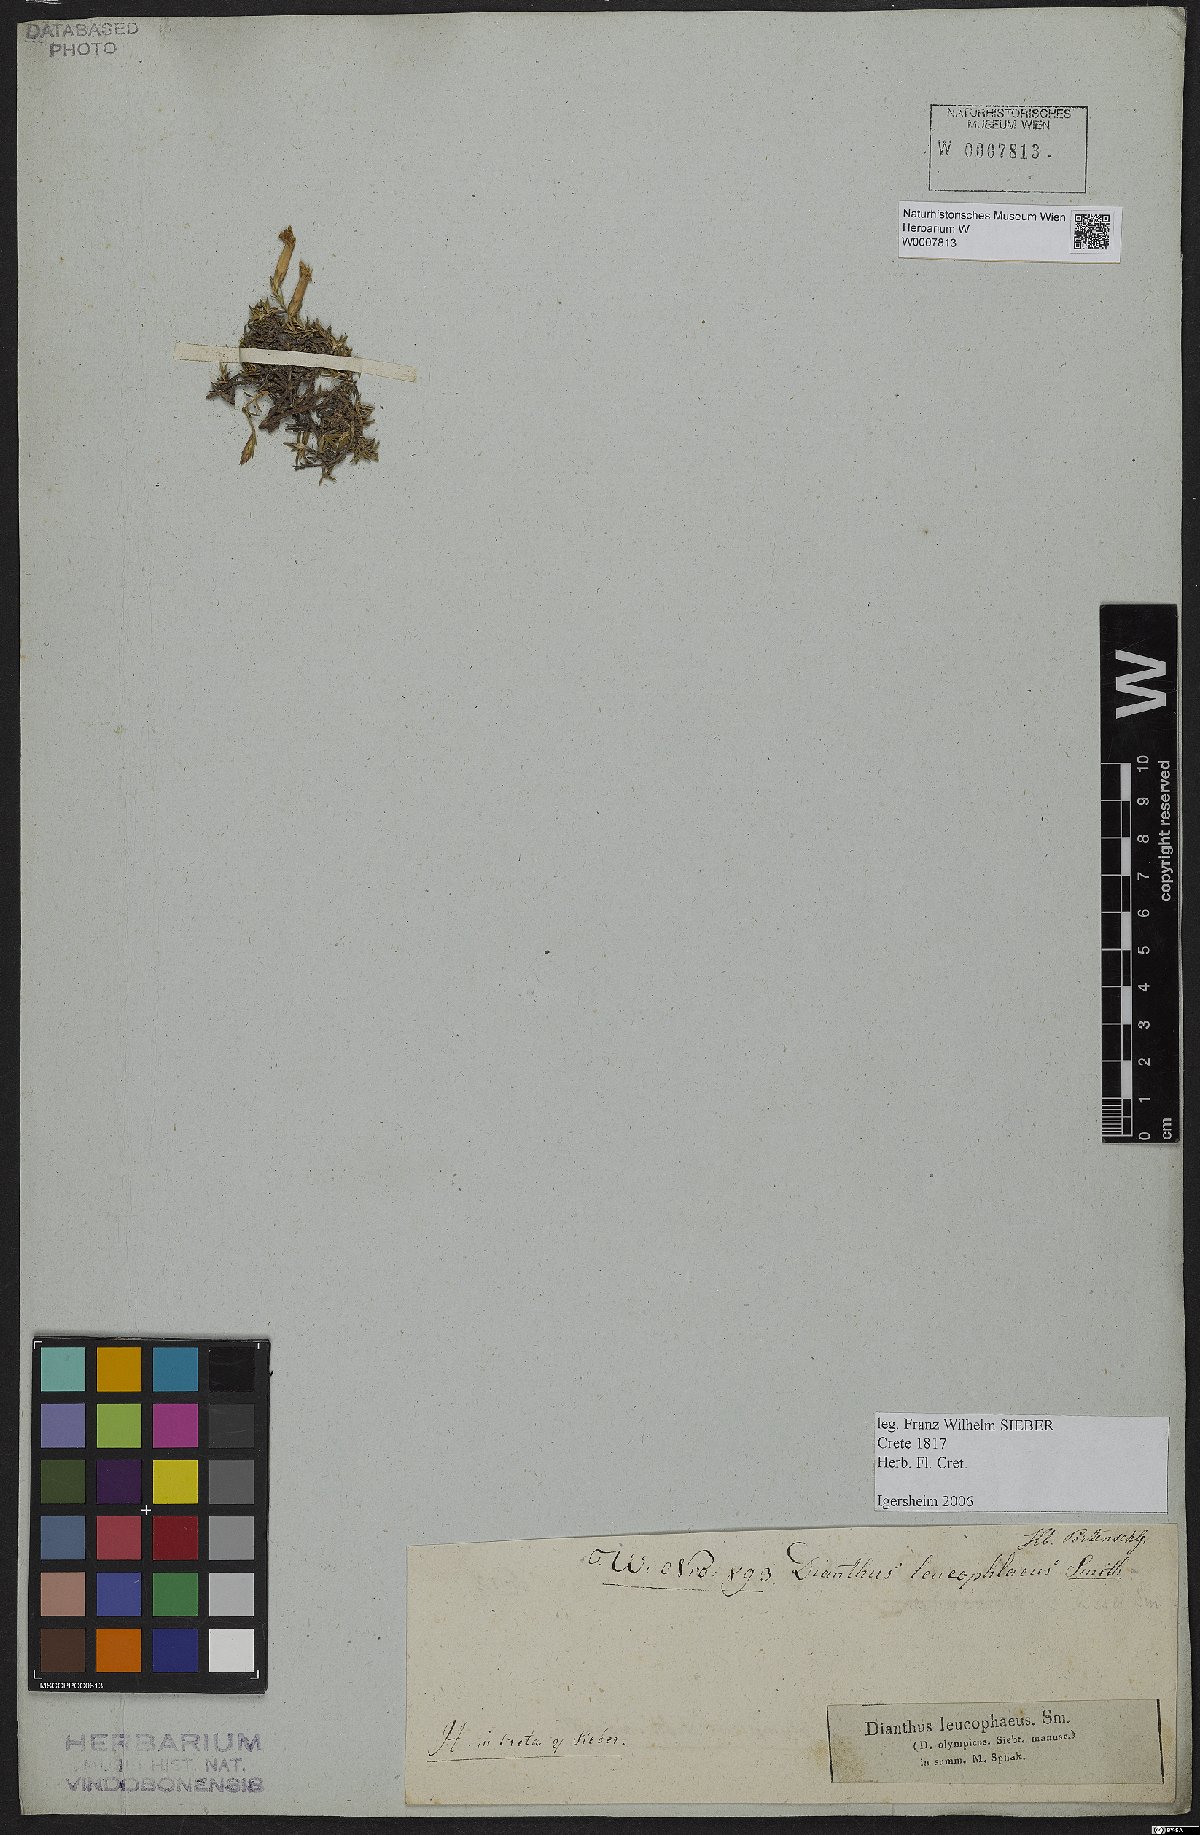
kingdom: Plantae
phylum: Tracheophyta
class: Magnoliopsida
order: Caryophyllales
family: Caryophyllaceae
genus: Dianthus
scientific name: Dianthus sphacioticus
